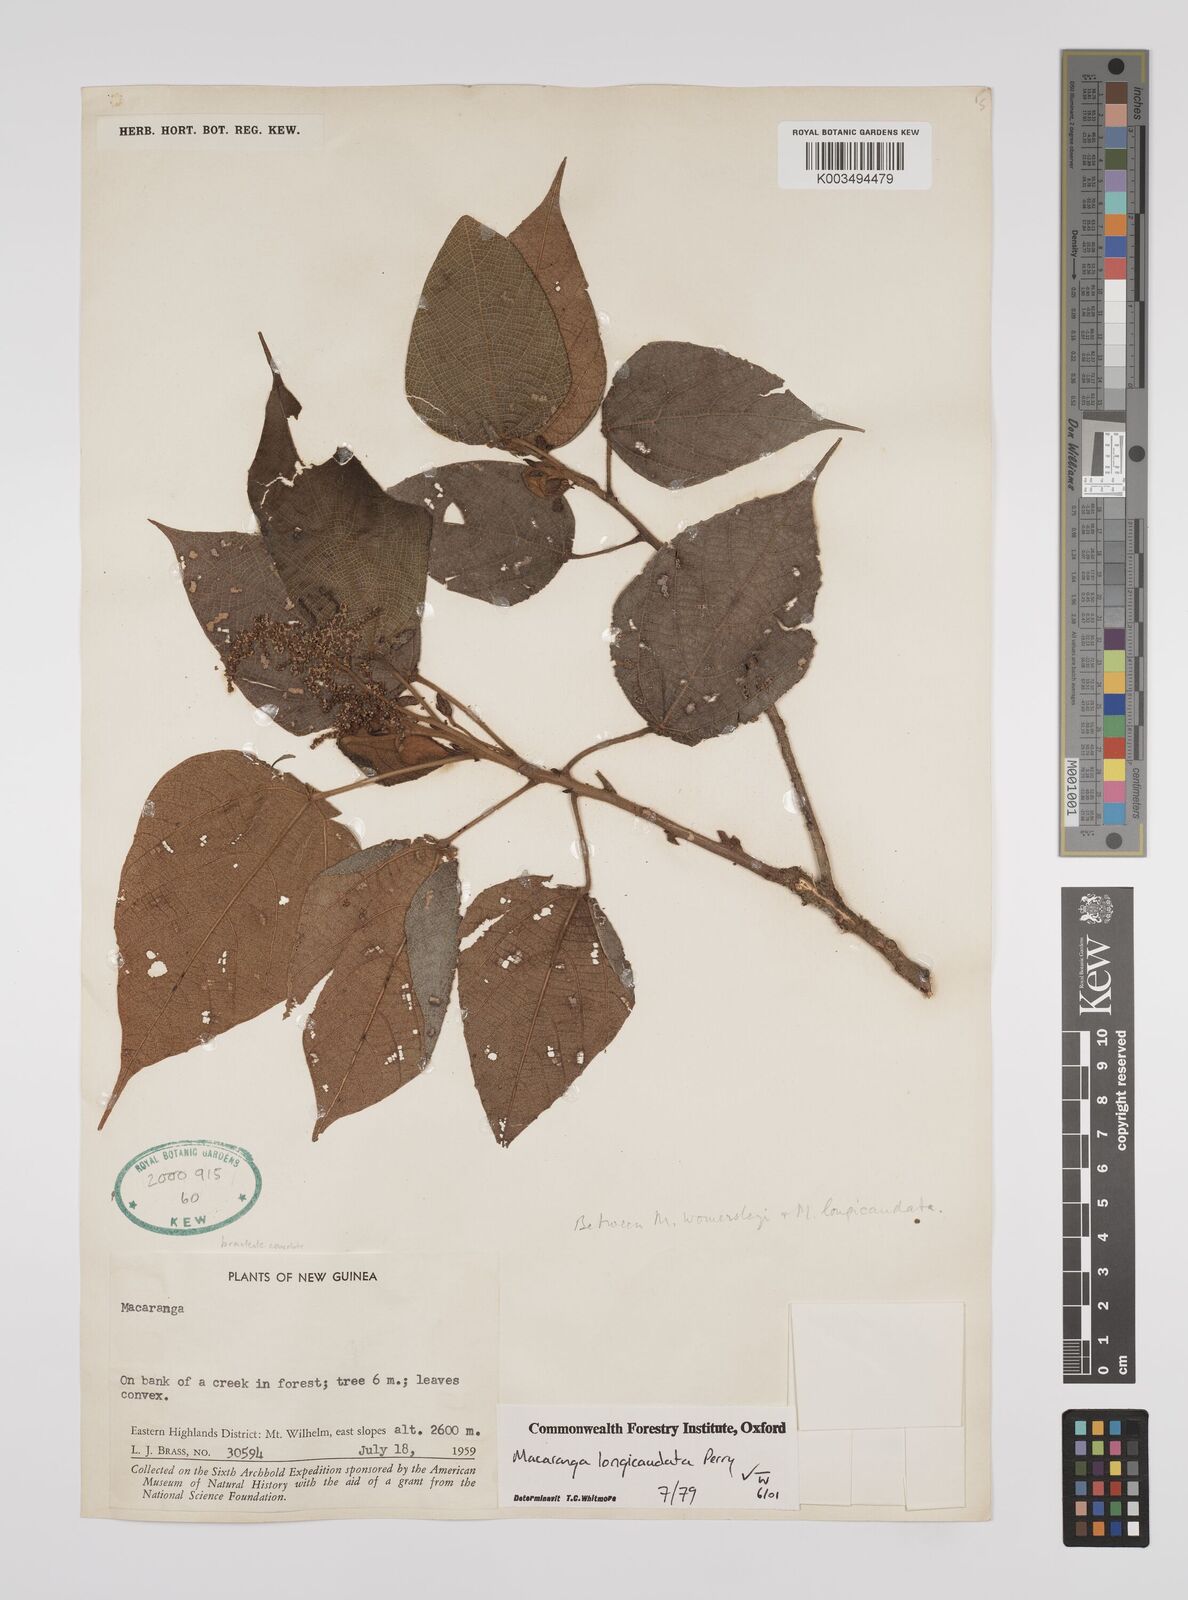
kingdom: Plantae
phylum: Tracheophyta
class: Magnoliopsida
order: Malpighiales
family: Euphorbiaceae
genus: Macaranga
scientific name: Macaranga longicaudata
